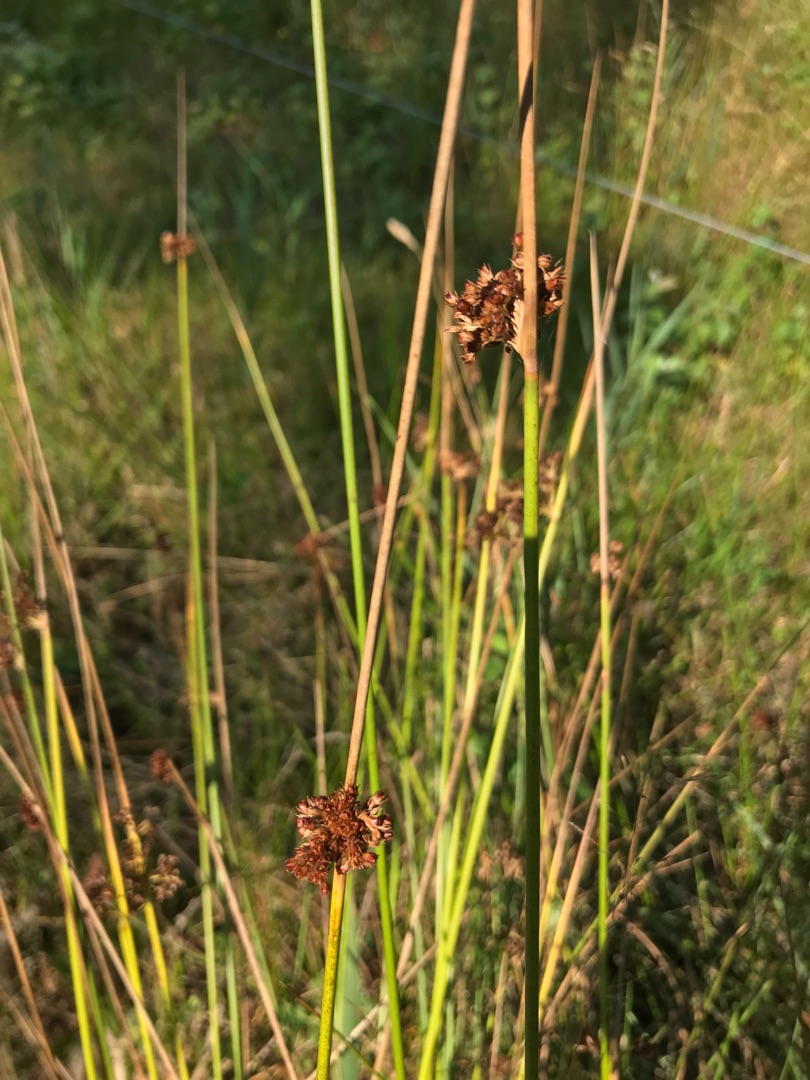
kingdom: Plantae
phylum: Tracheophyta
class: Liliopsida
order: Poales
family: Juncaceae
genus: Juncus
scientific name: Juncus effusus
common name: Lyse-siv
